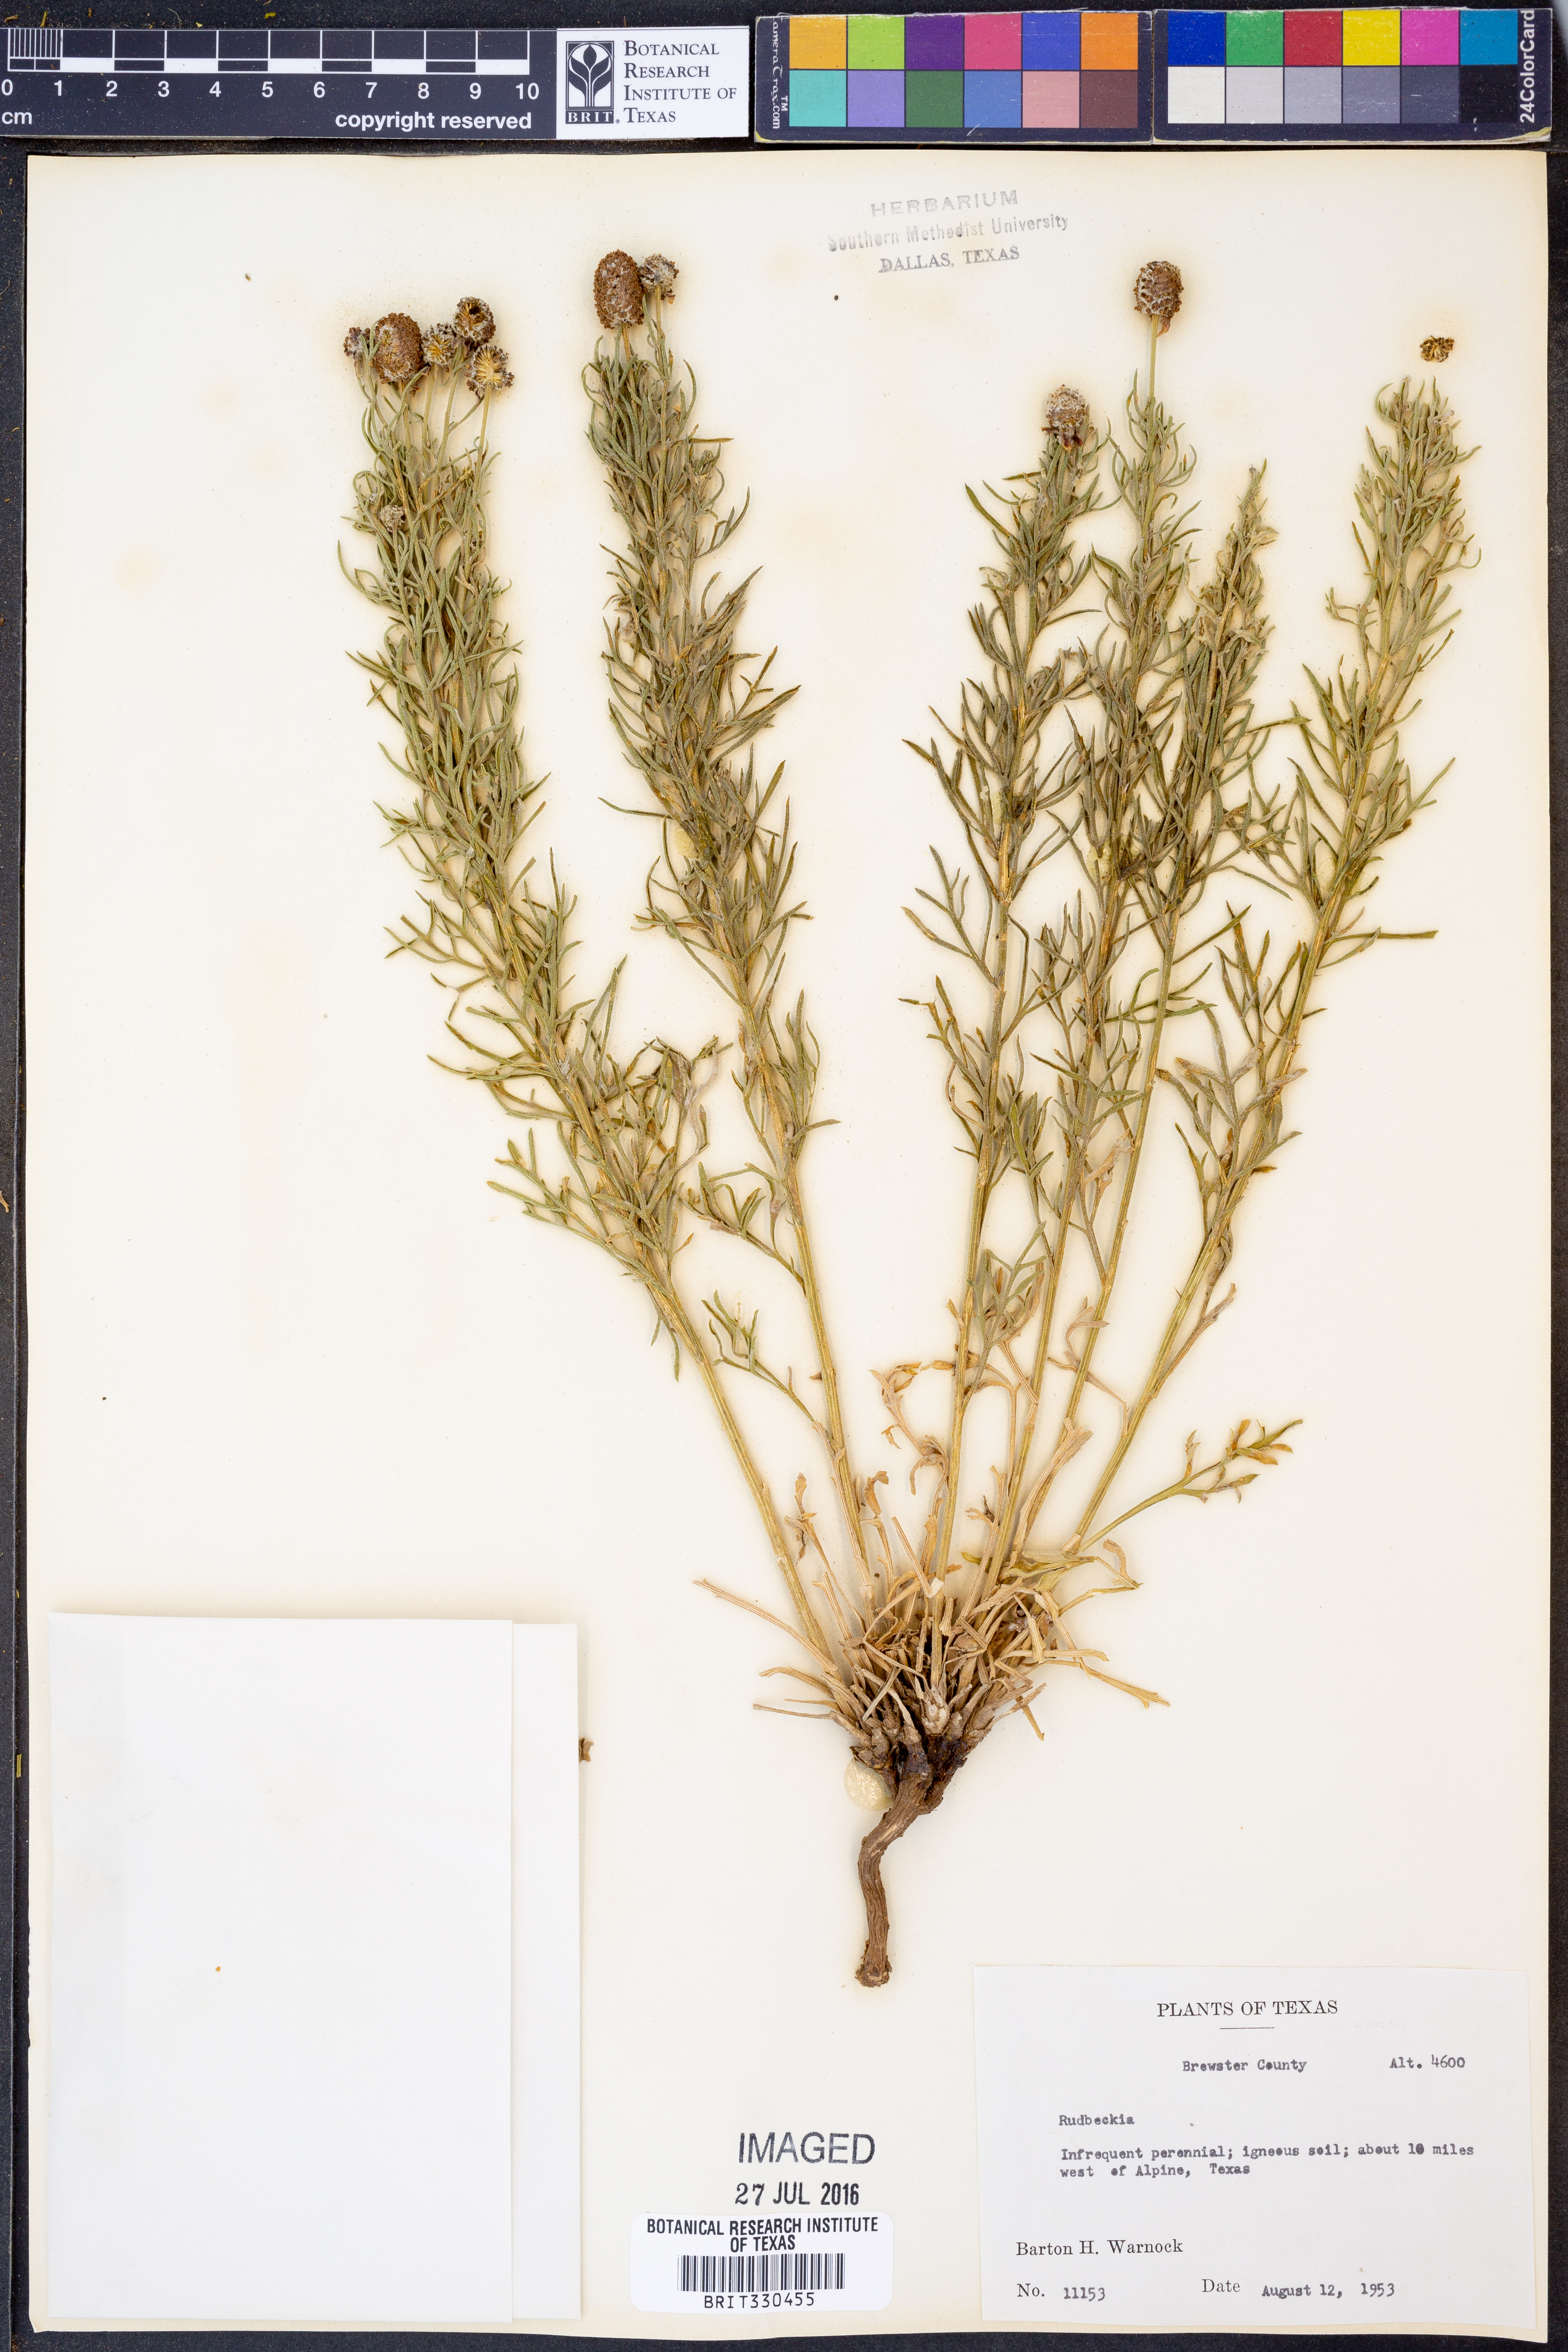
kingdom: Plantae
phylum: Tracheophyta
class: Magnoliopsida
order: Asterales
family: Asteraceae
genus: Rudbeckia
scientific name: Rudbeckia
